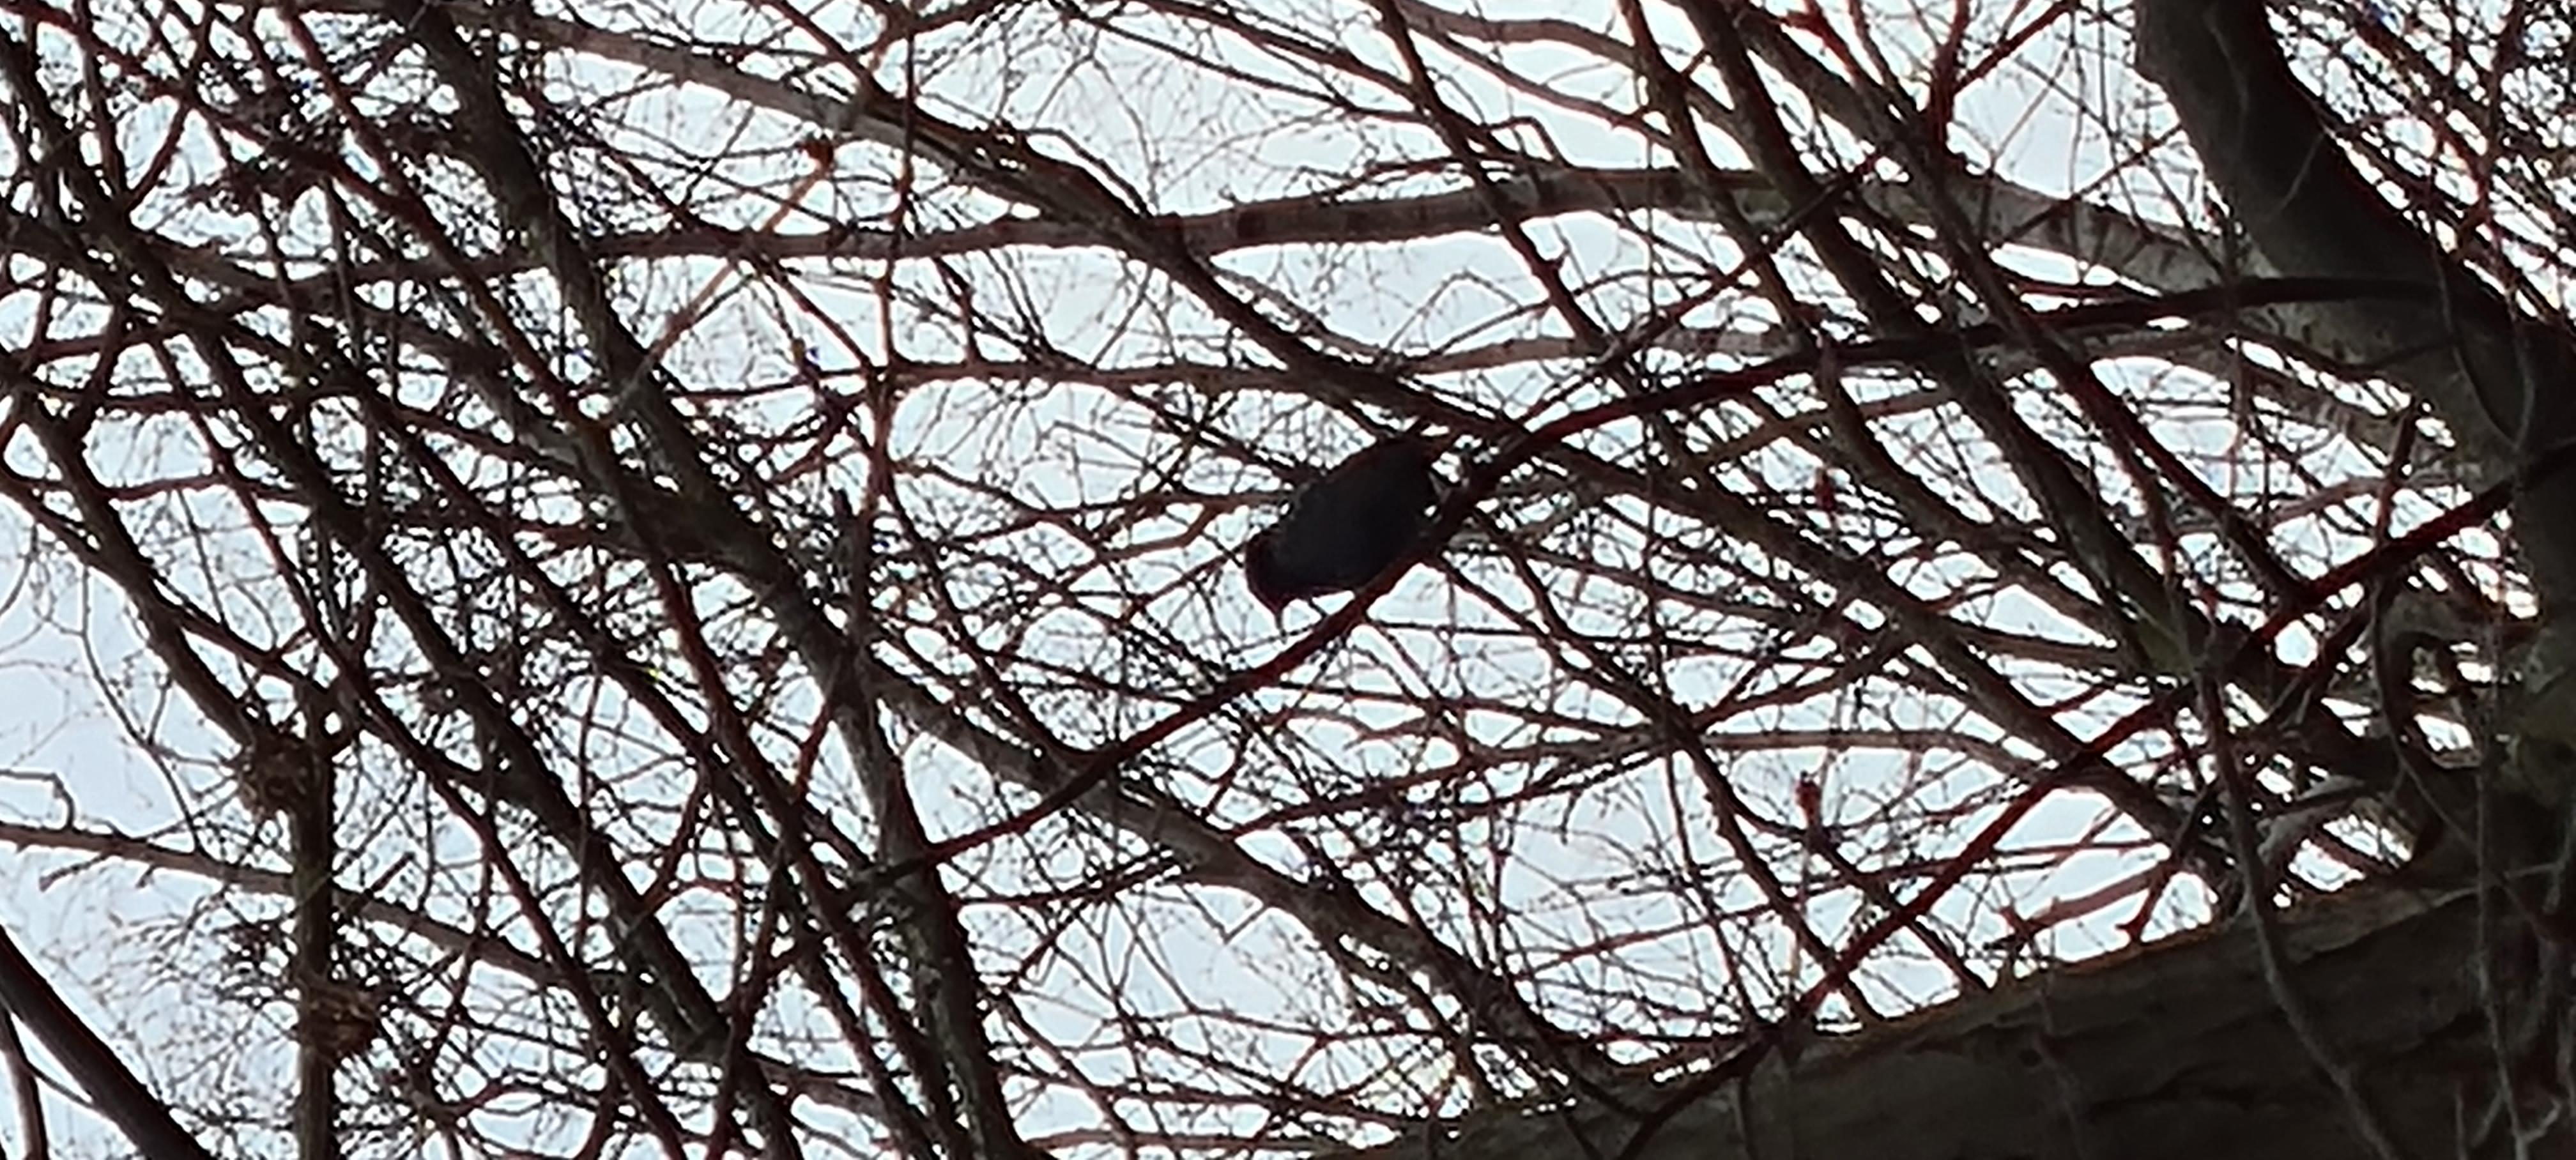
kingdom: Animalia
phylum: Chordata
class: Aves
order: Passeriformes
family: Sturnidae
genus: Sturnus
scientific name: Sturnus vulgaris
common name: Stær
